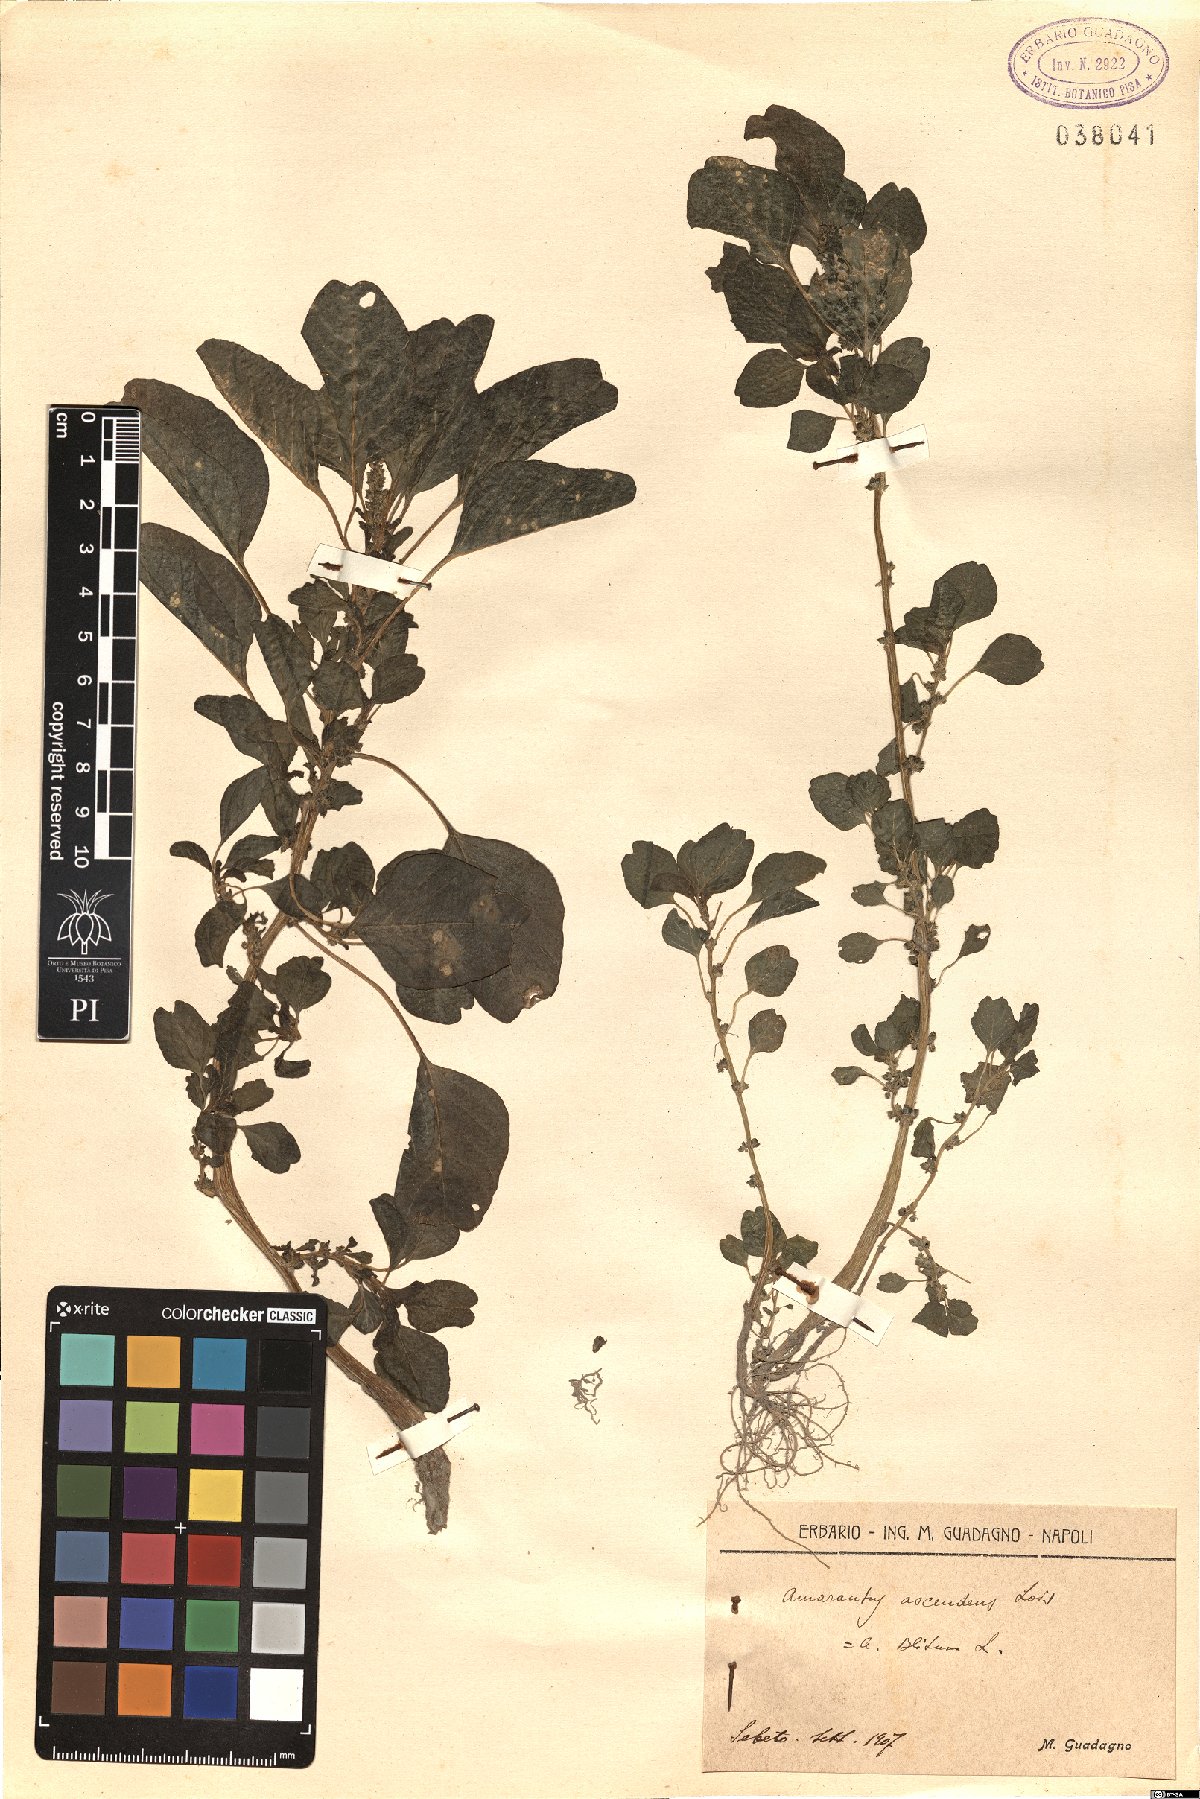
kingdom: Plantae
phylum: Tracheophyta
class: Magnoliopsida
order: Caryophyllales
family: Amaranthaceae
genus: Amaranthus
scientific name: Amaranthus adscendens
